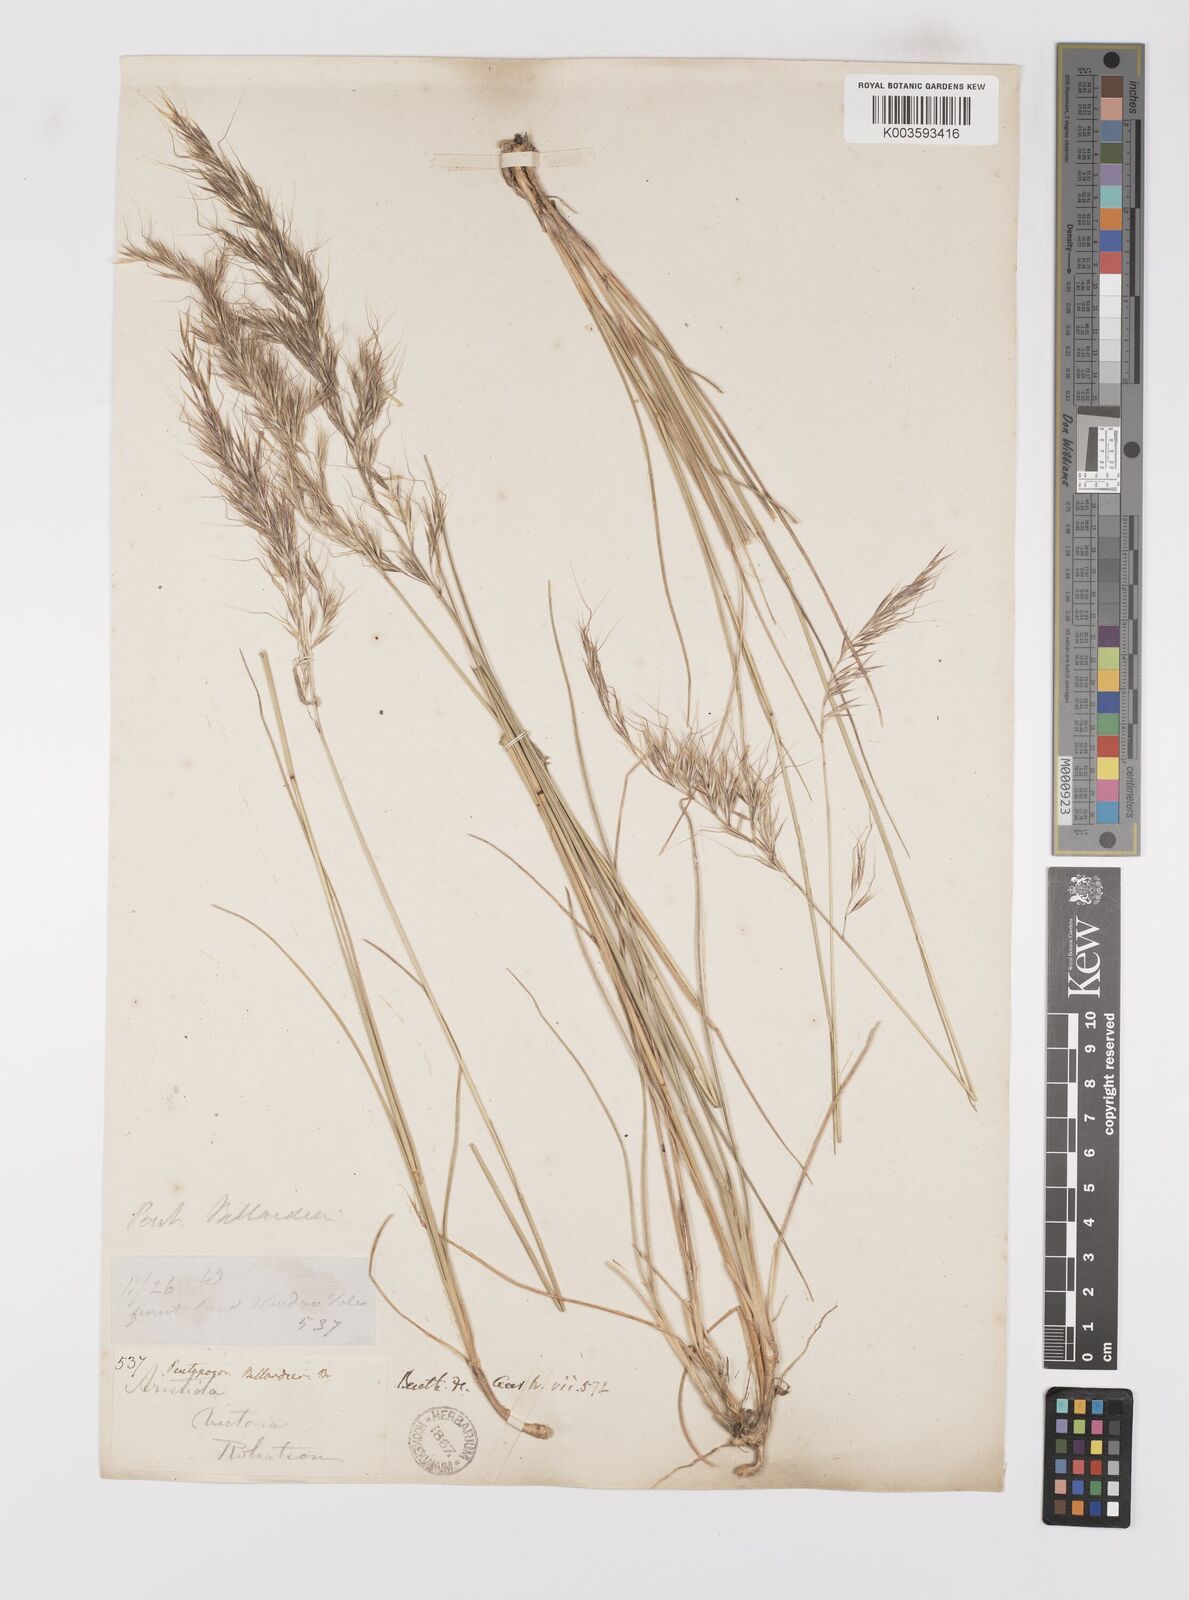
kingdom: Plantae
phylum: Tracheophyta
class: Liliopsida
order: Poales
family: Poaceae
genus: Pentapogon
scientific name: Pentapogon quadrifidus
